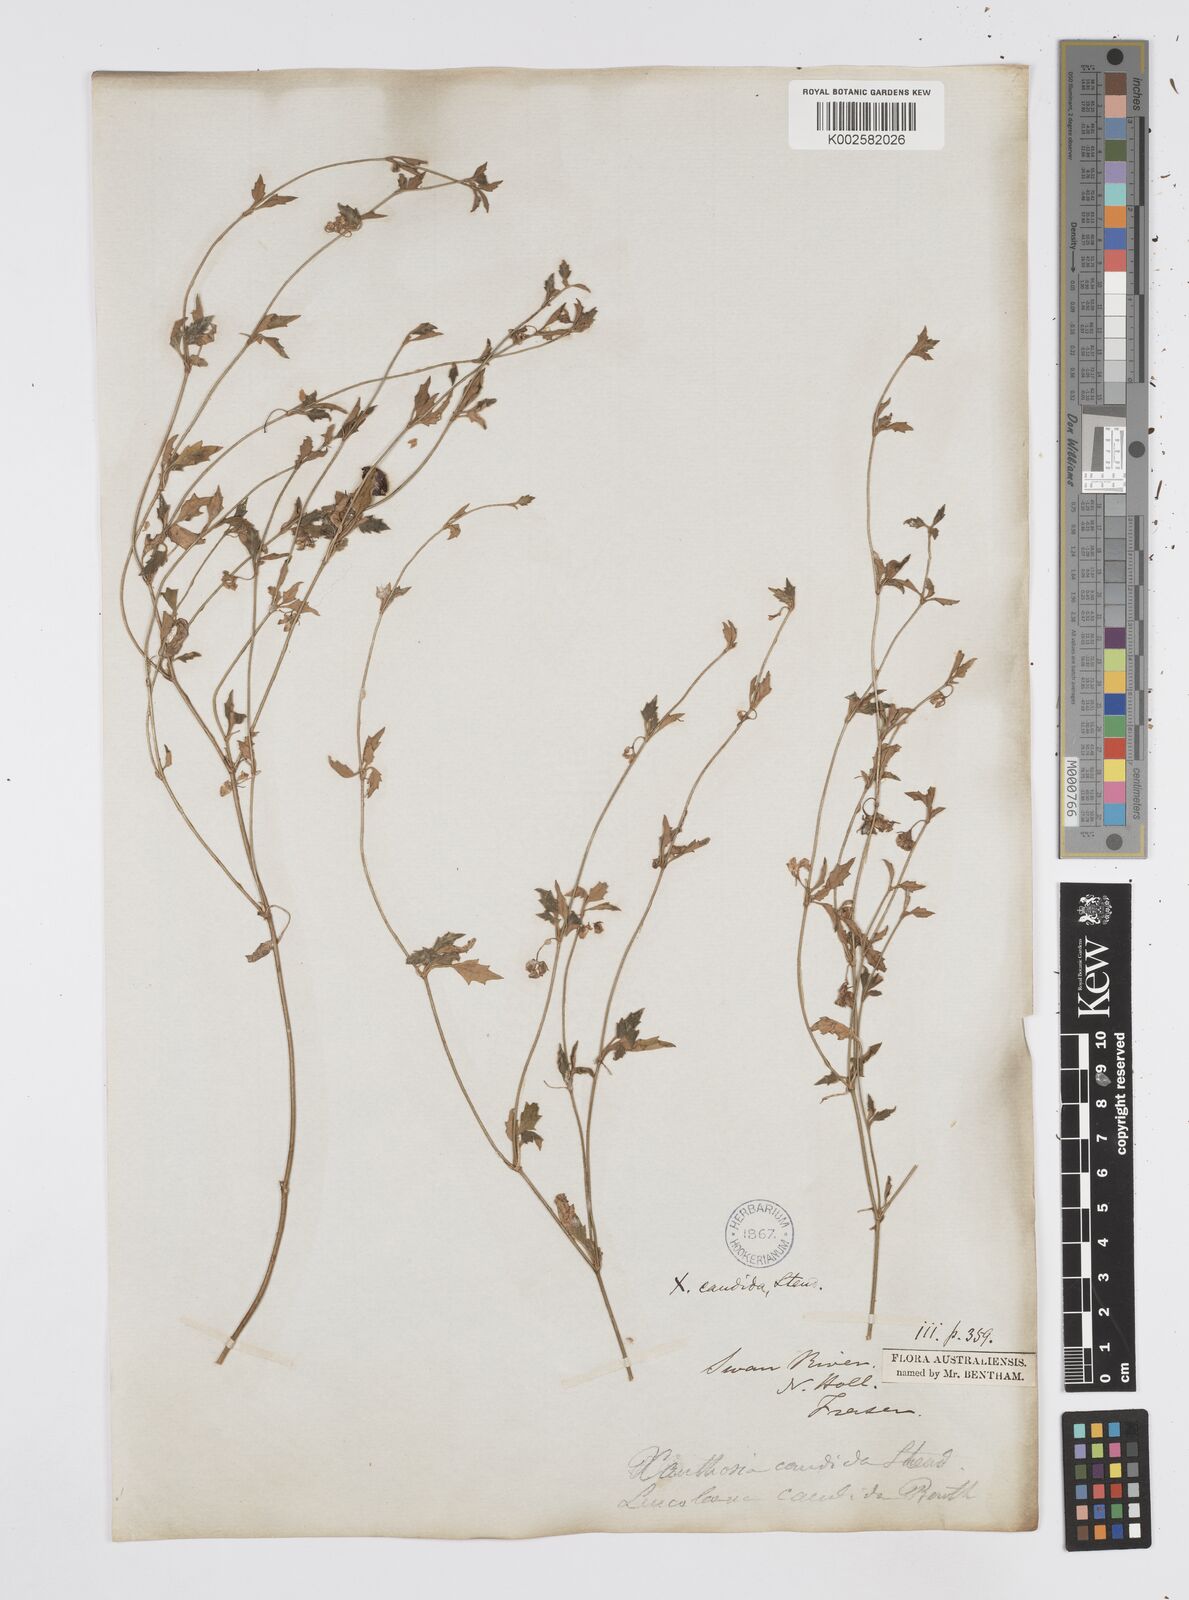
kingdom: Plantae
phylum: Tracheophyta
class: Magnoliopsida
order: Apiales
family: Apiaceae
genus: Xanthosia
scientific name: Xanthosia candida
